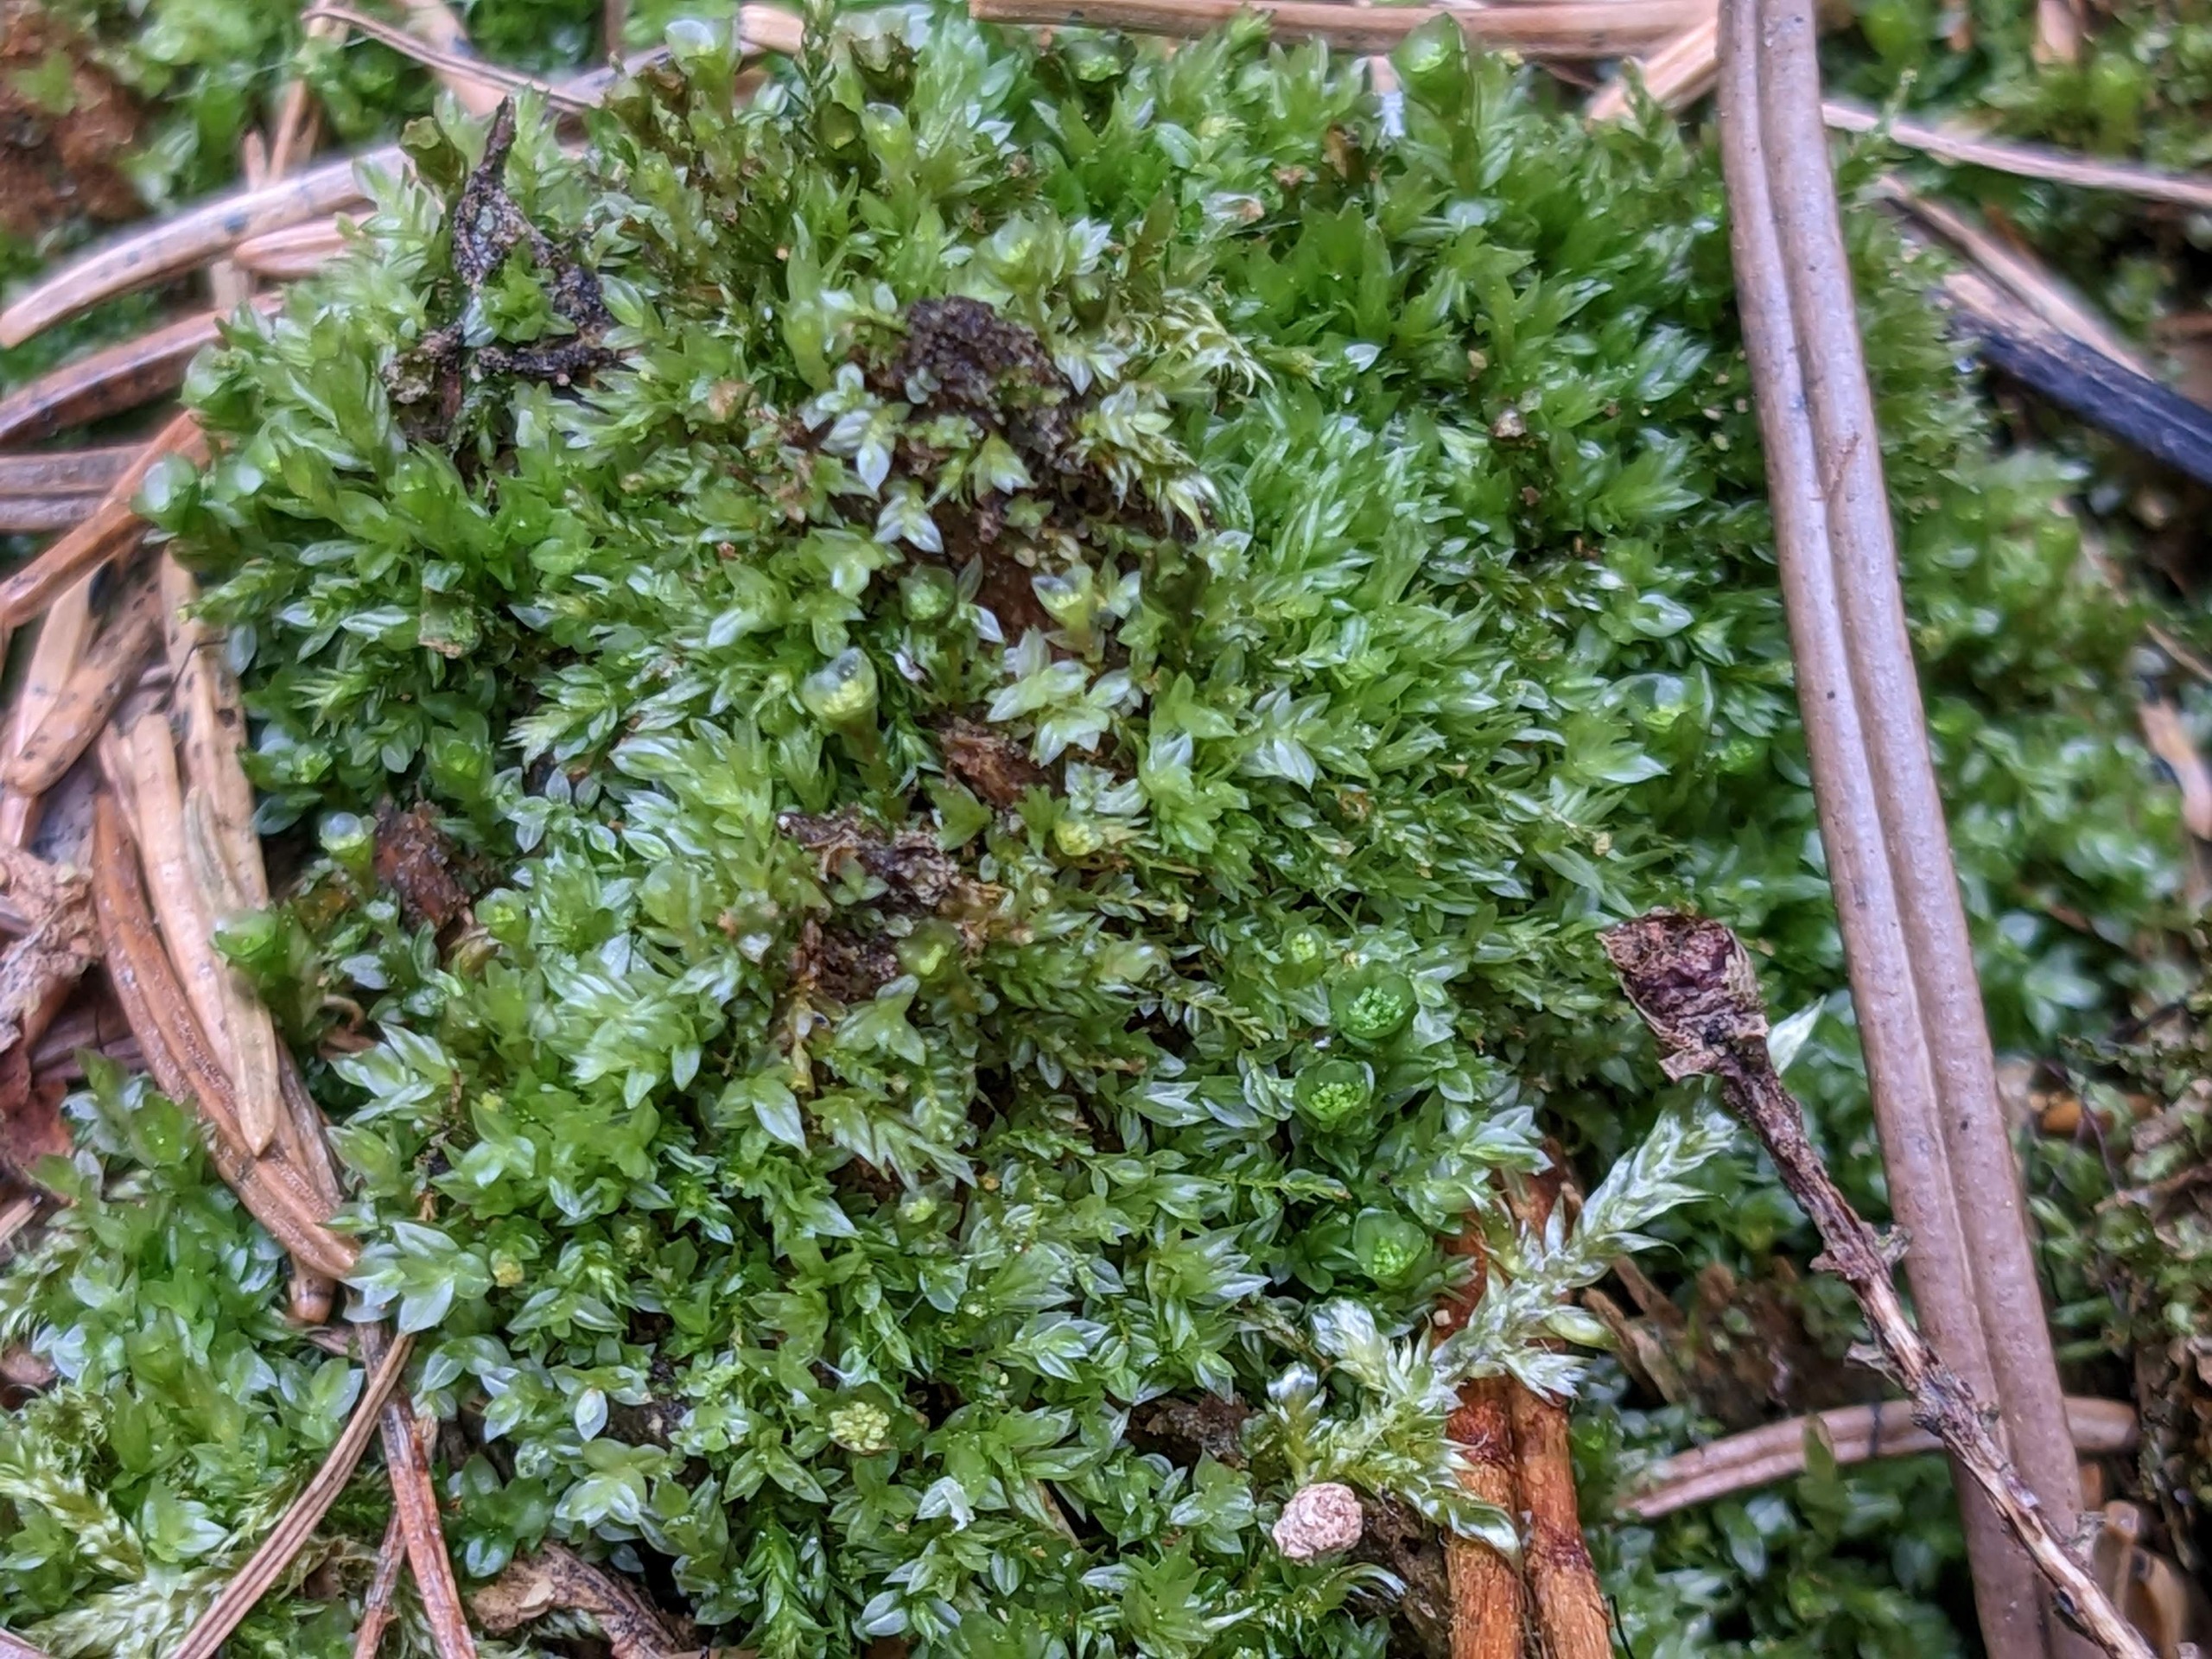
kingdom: Plantae
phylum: Bryophyta
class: Polytrichopsida
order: Tetraphidales
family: Tetraphidaceae
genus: Tetraphis
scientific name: Tetraphis pellucida
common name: Almindelig firtand
